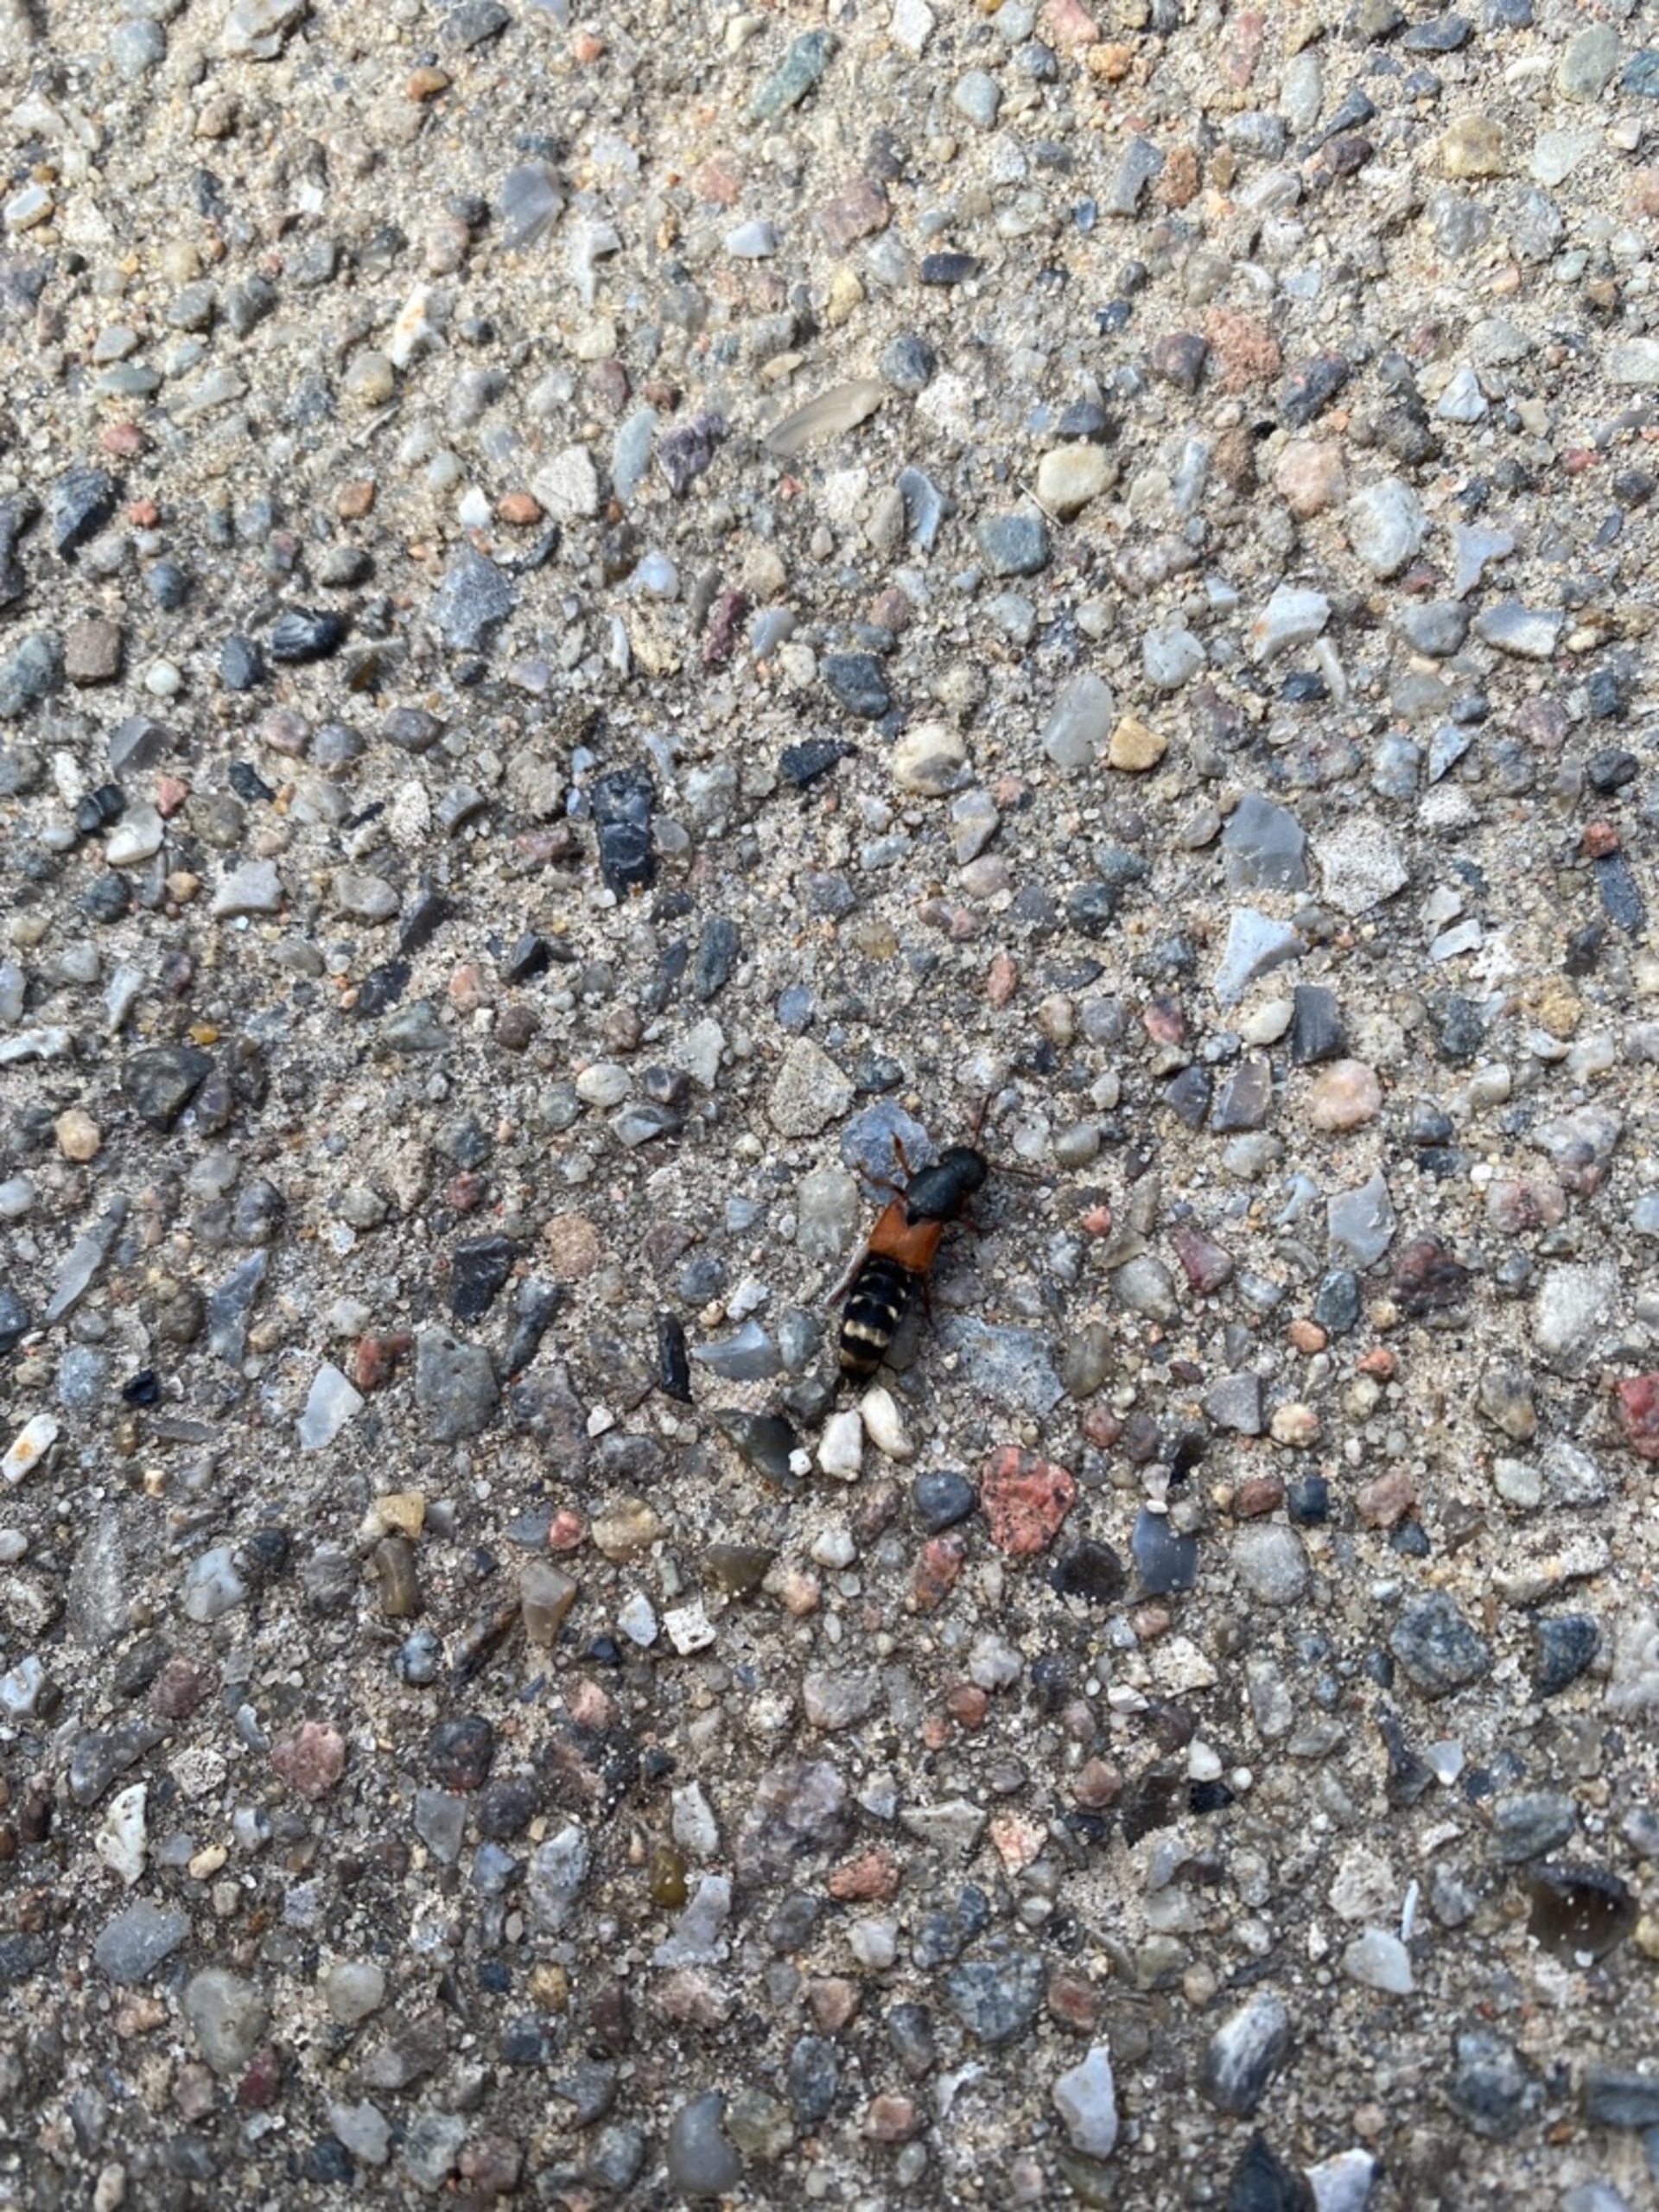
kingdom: Animalia
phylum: Arthropoda
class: Insecta
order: Coleoptera
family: Staphylinidae
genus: Platydracus
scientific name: Platydracus stercorarius
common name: Almindelig guldpletrovbille
